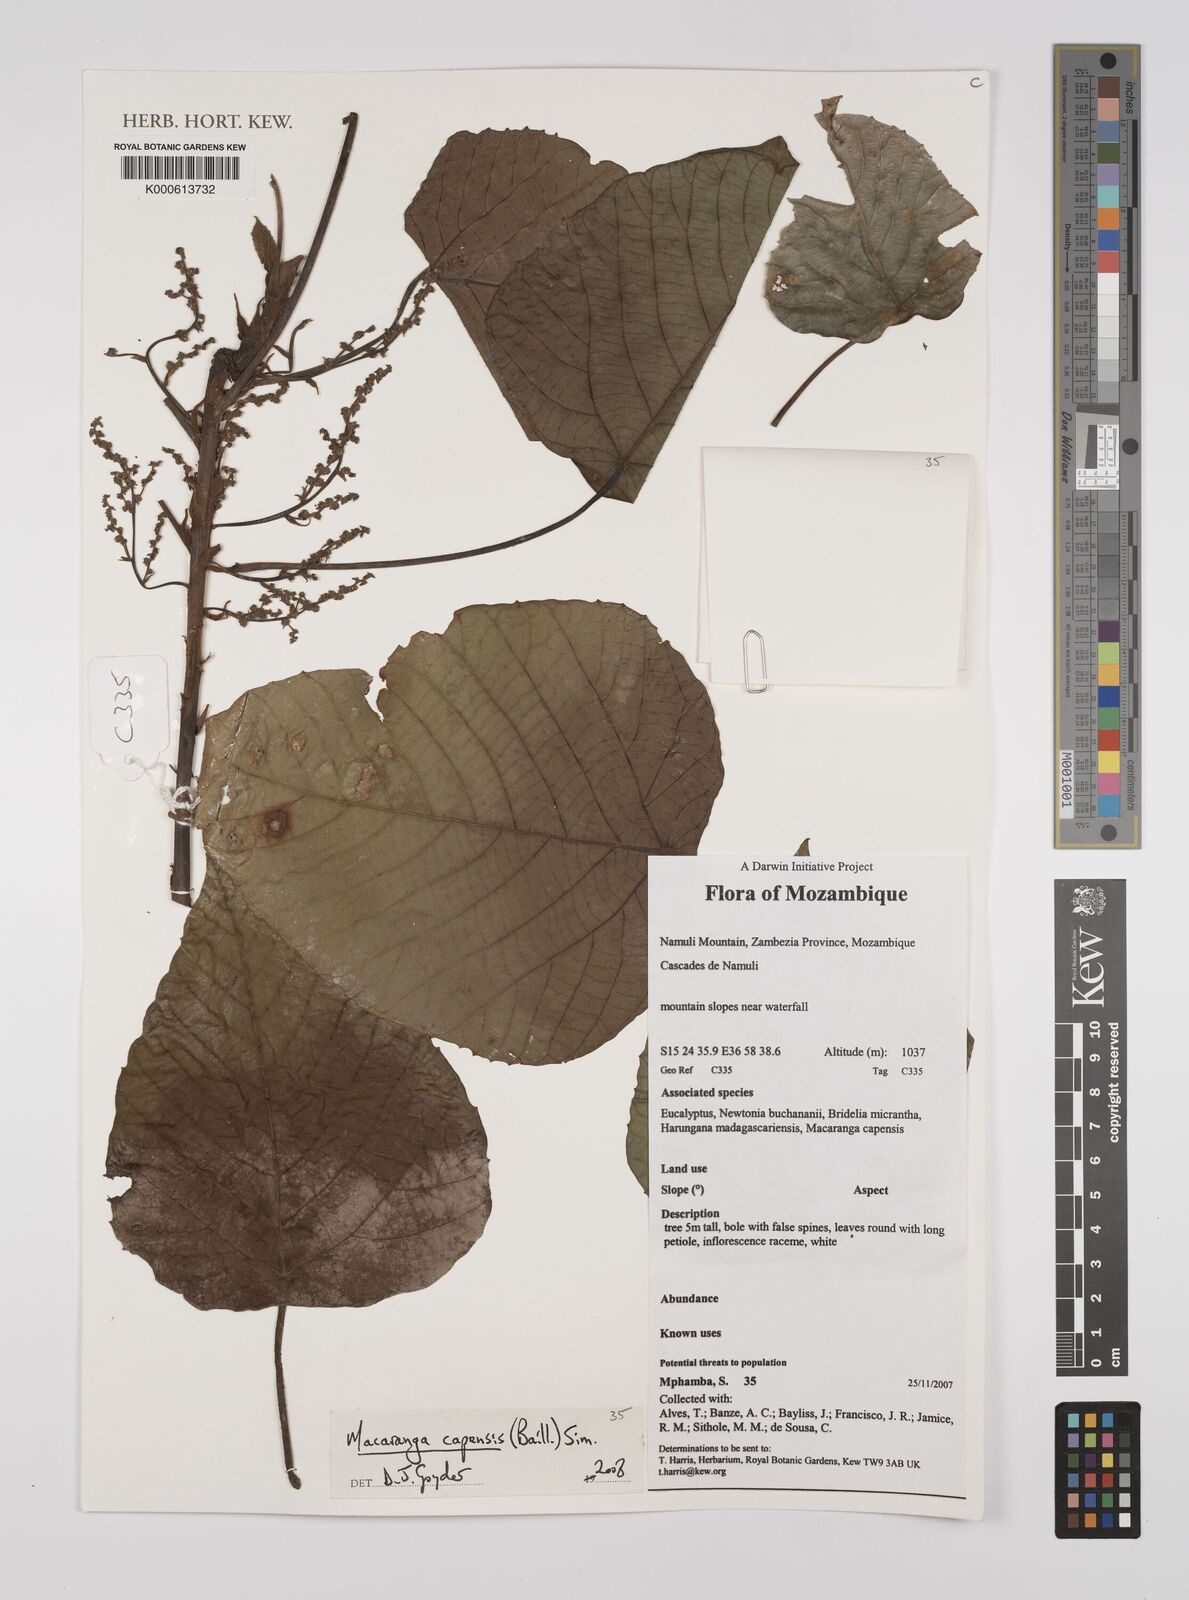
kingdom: Plantae
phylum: Tracheophyta
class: Magnoliopsida
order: Malpighiales
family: Euphorbiaceae
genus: Macaranga
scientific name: Macaranga capensis
